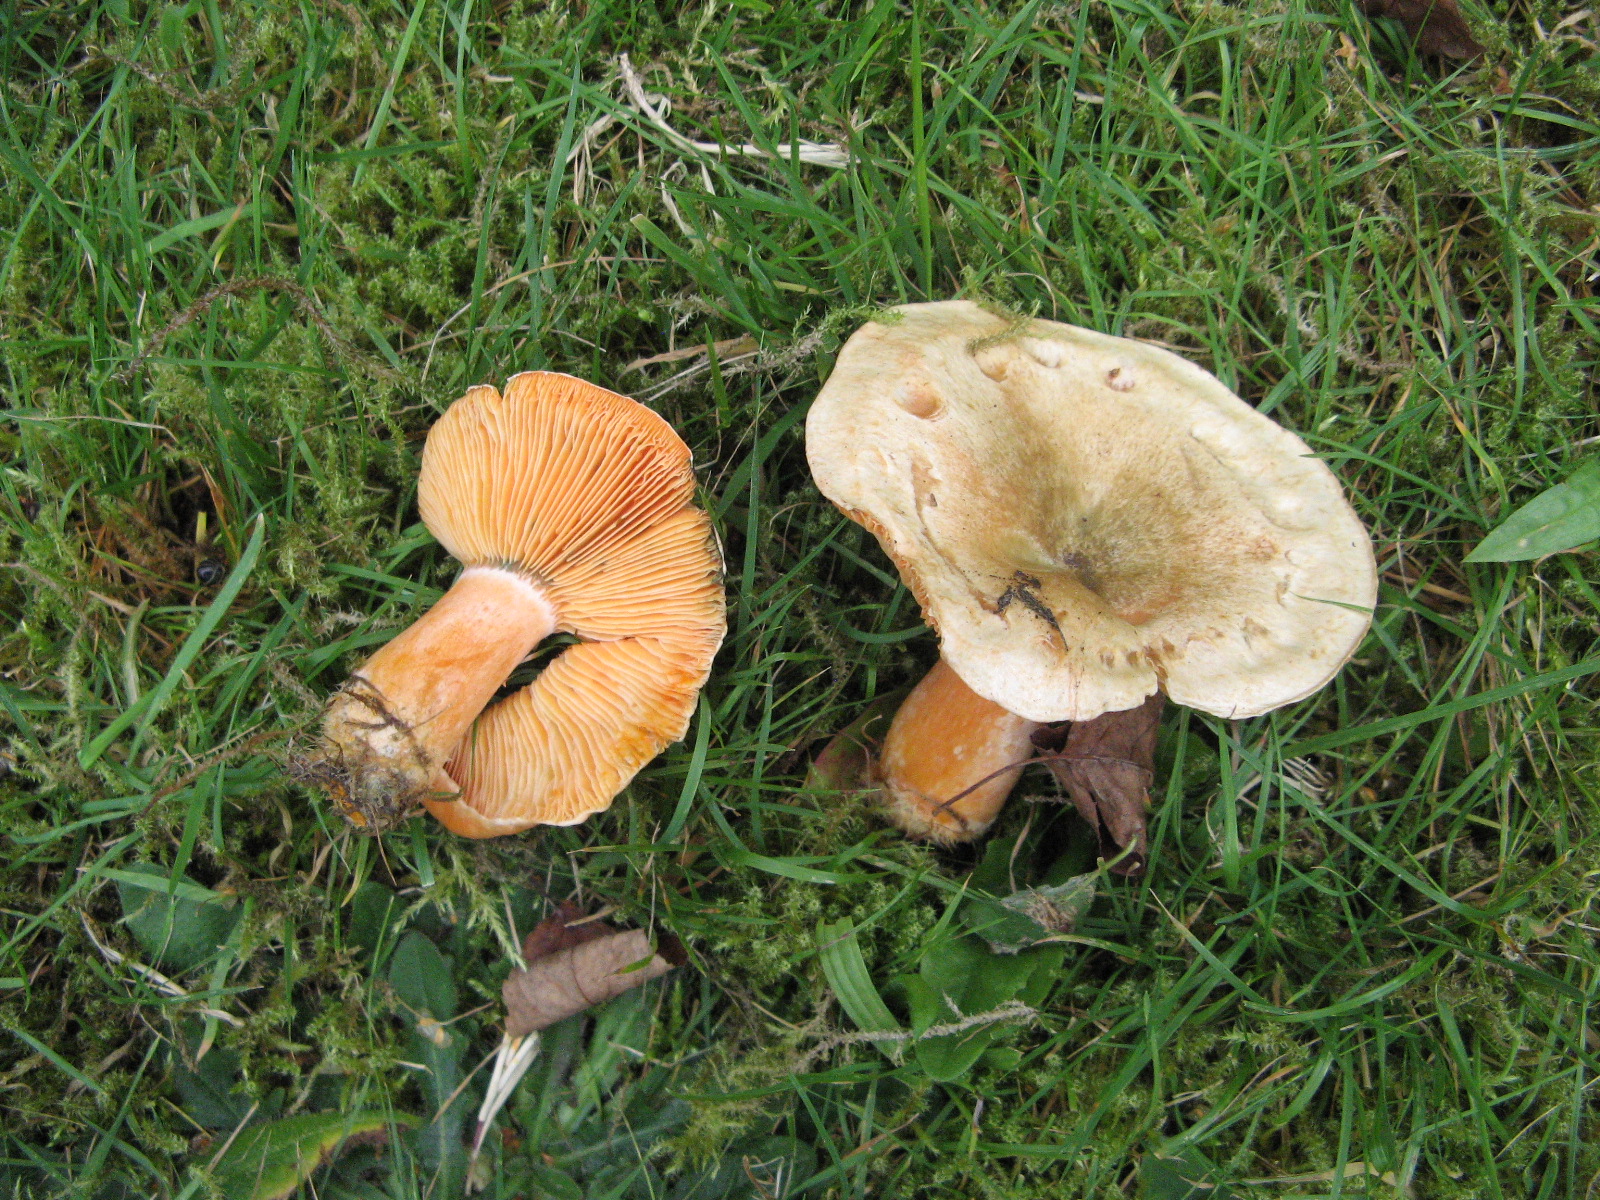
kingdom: Fungi
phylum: Basidiomycota
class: Agaricomycetes
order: Russulales
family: Russulaceae
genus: Lactarius
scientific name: Lactarius deterrimus
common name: gran-mælkehat
